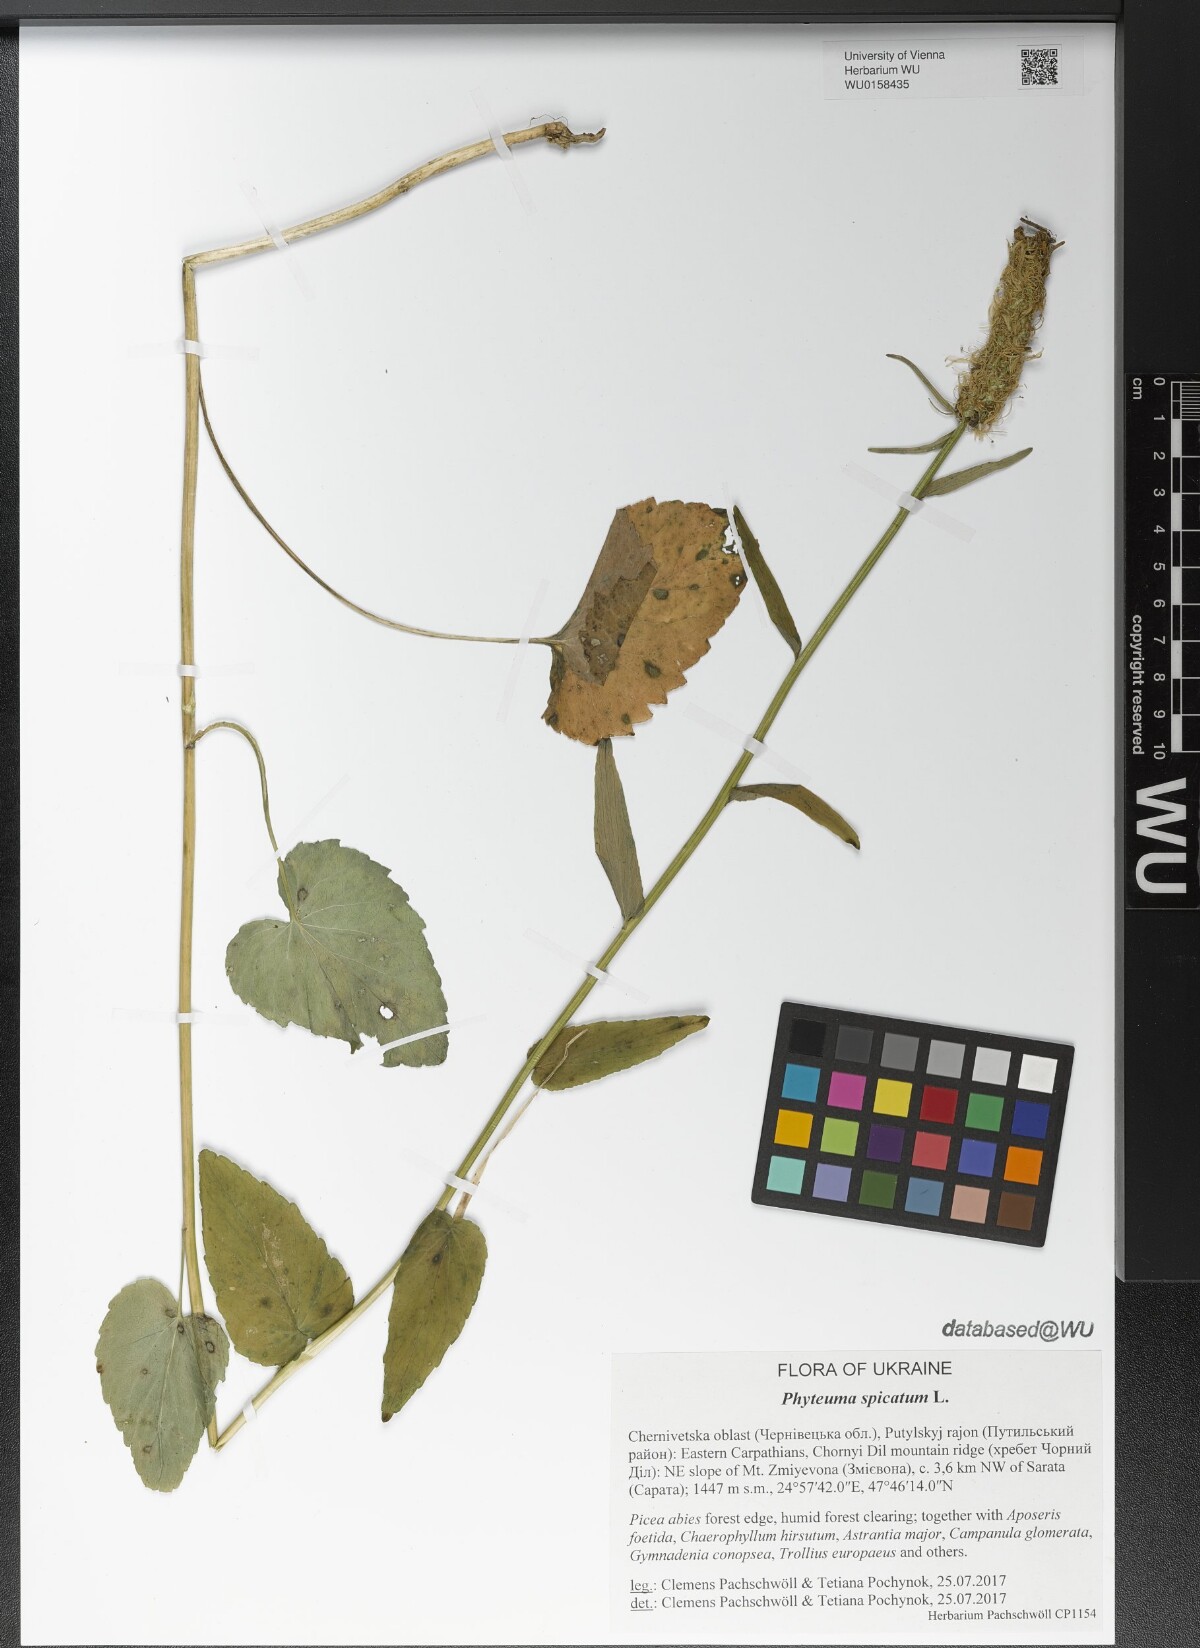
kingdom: Plantae
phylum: Tracheophyta
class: Magnoliopsida
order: Asterales
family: Campanulaceae
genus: Phyteuma
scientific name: Phyteuma spicatum
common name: Spiked rampion
